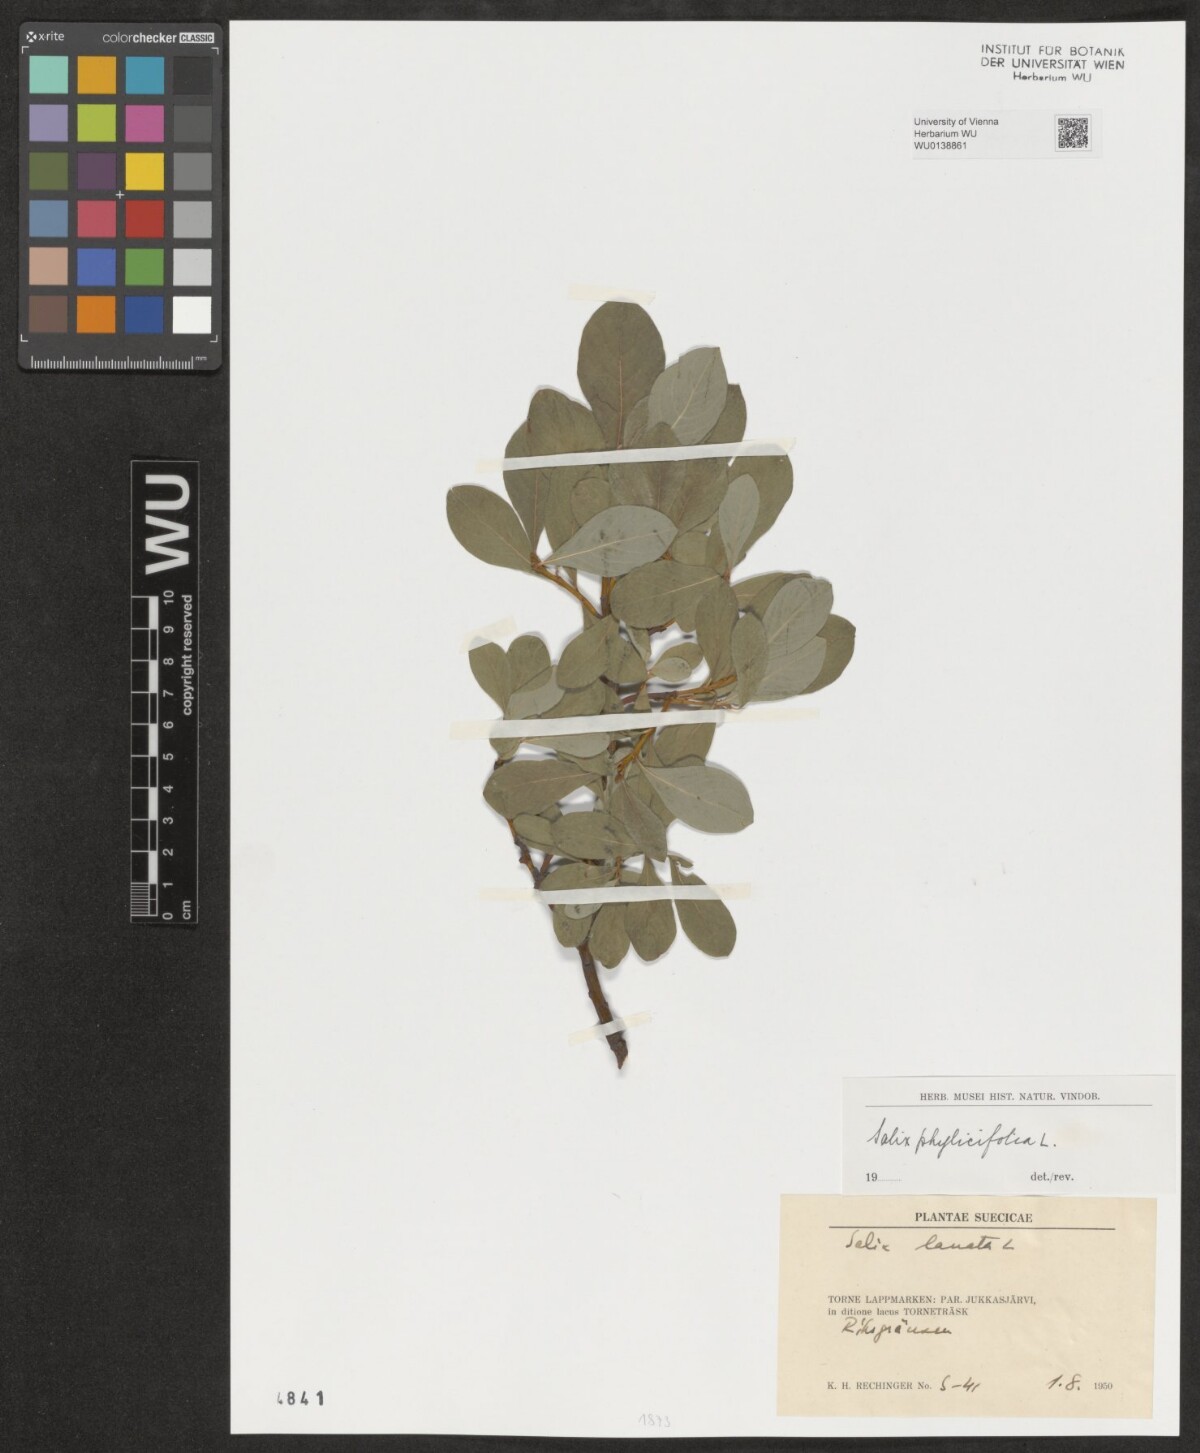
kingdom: Plantae
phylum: Tracheophyta
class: Magnoliopsida
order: Malpighiales
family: Salicaceae
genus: Salix
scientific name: Salix phylicifolia
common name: Tea-leaved willow
